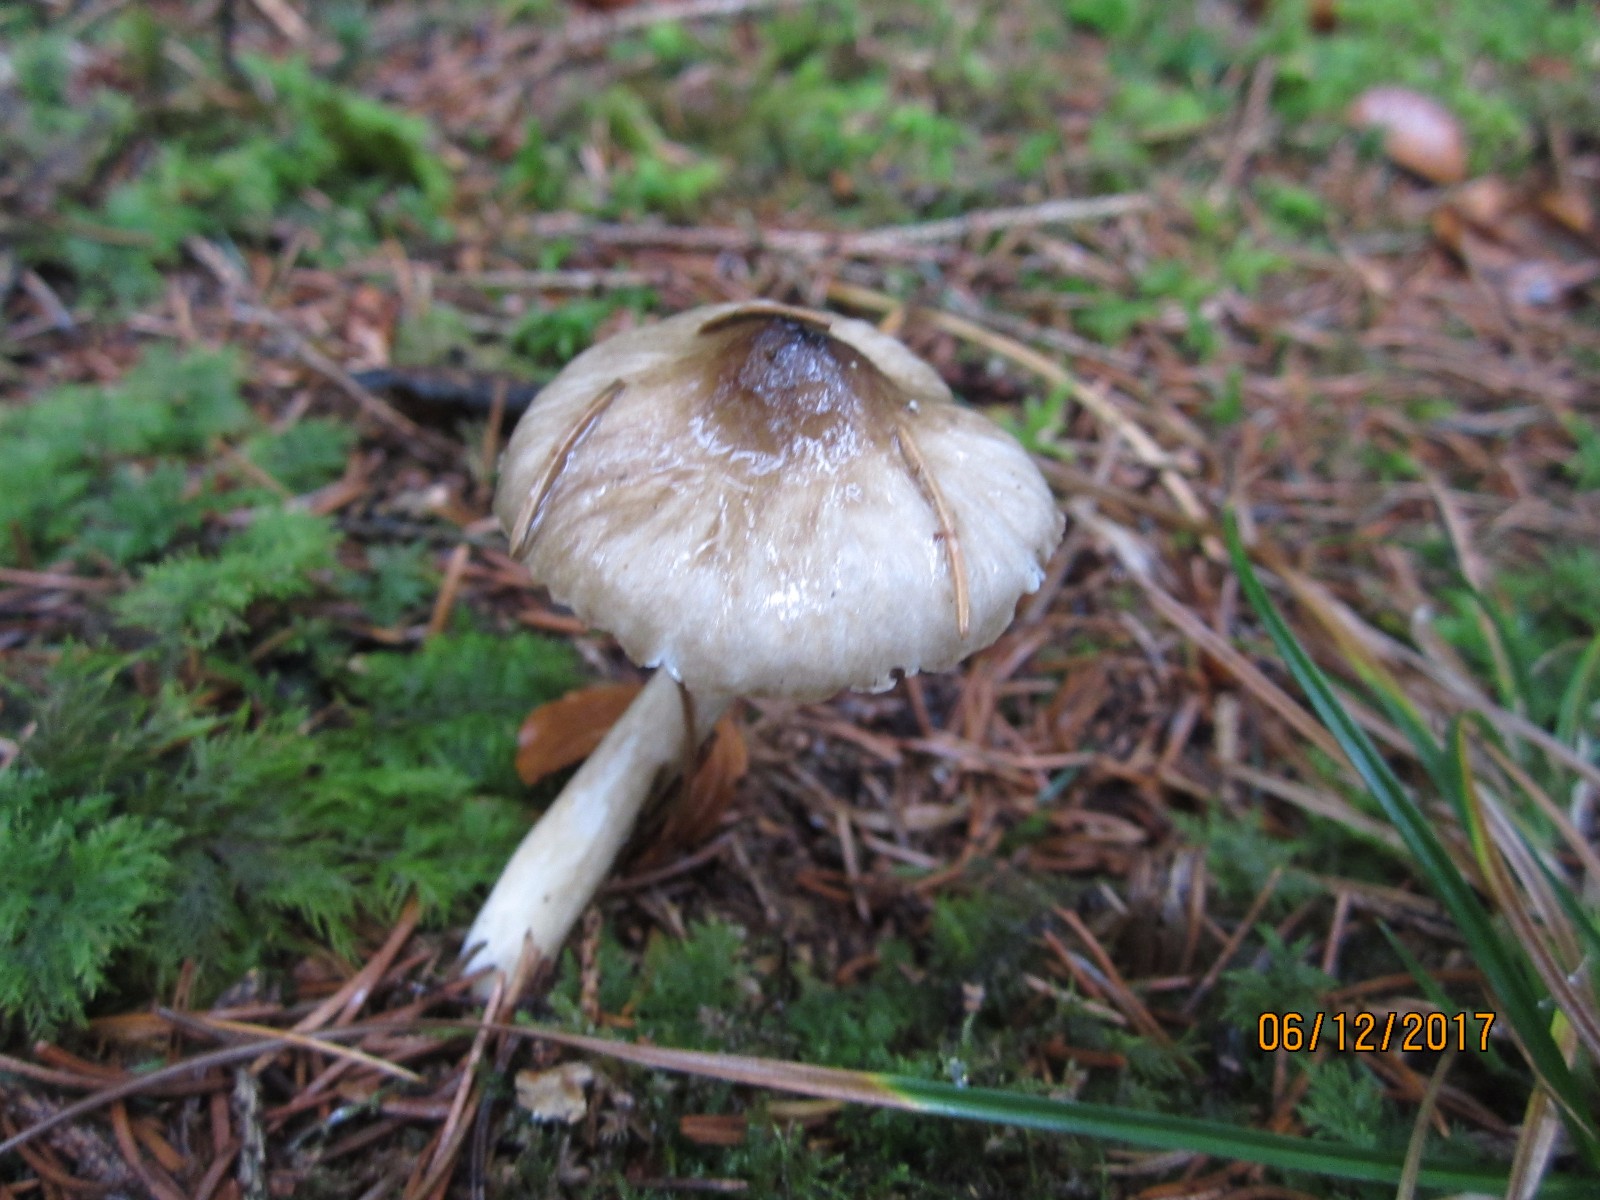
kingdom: Fungi
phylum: Basidiomycota
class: Agaricomycetes
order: Agaricales
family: Hygrophoraceae
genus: Hygrophorus
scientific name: Hygrophorus olivaceoalbus
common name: hvidbrun sneglehat
